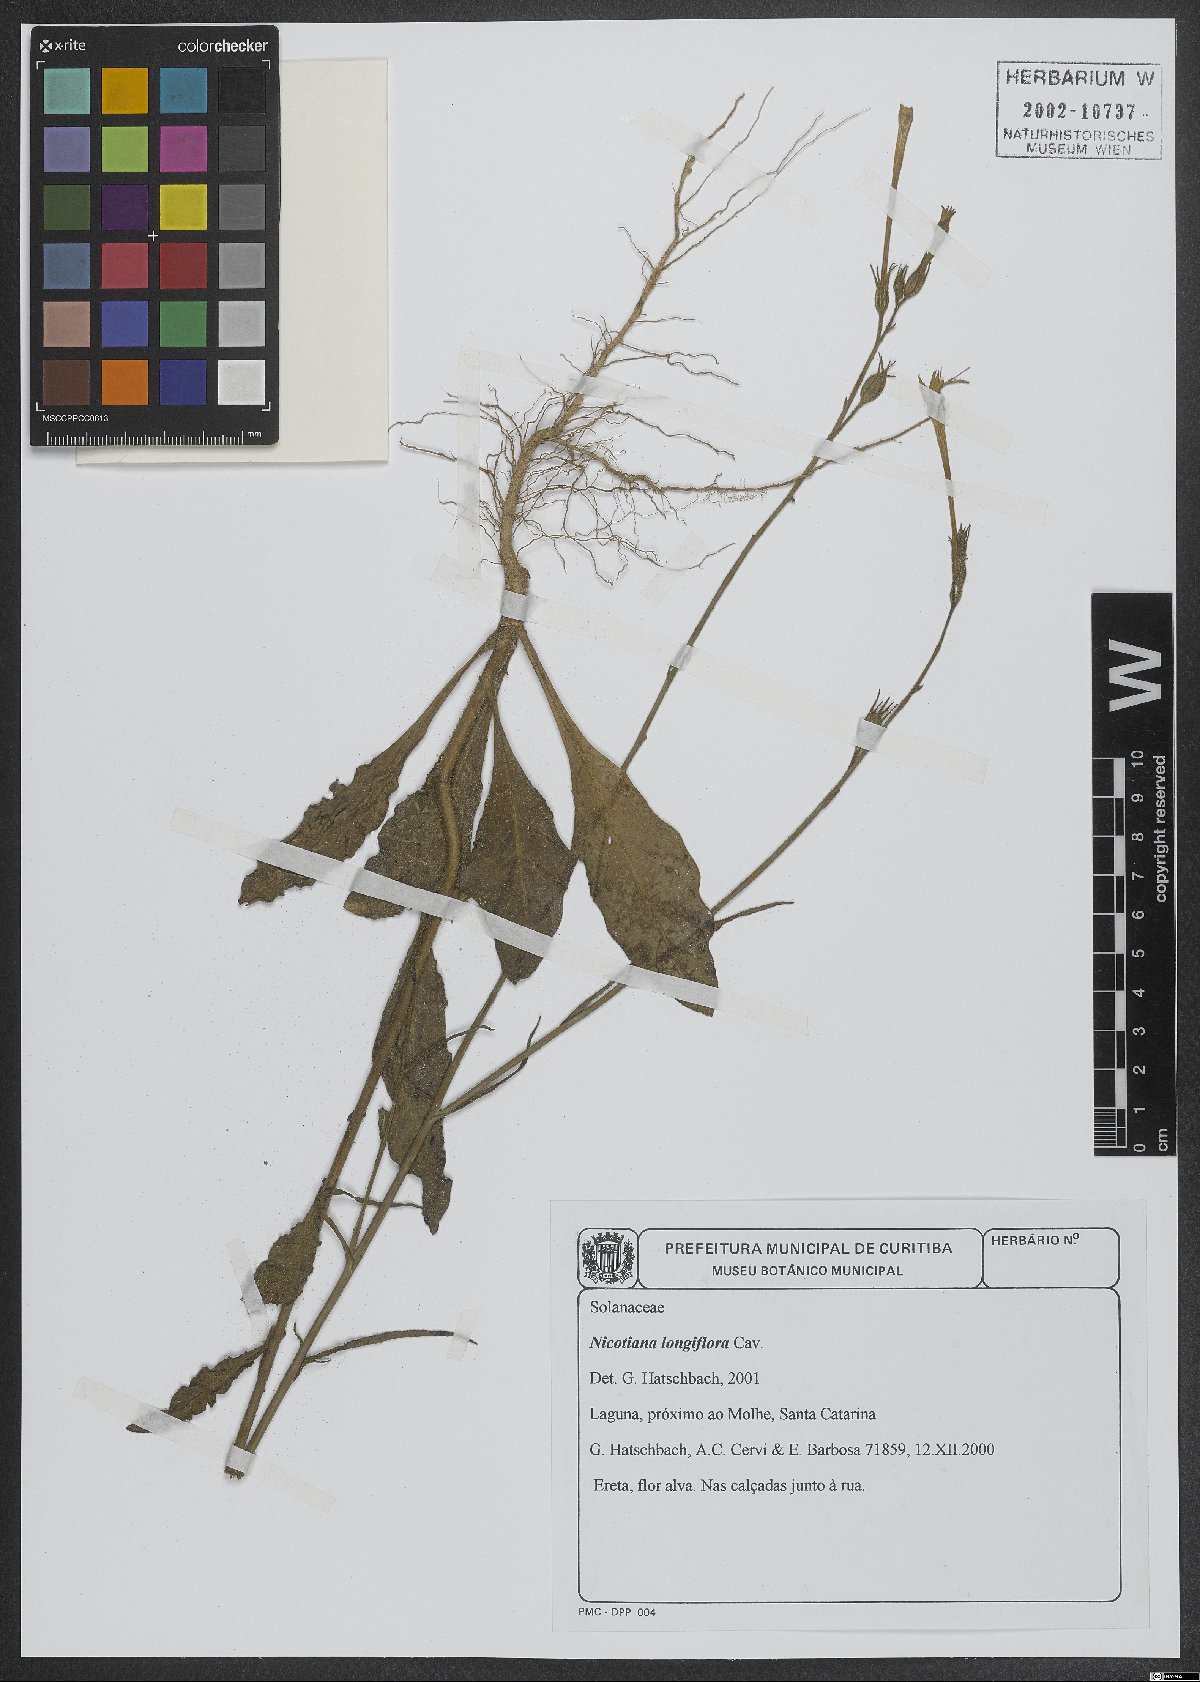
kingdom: Plantae
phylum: Tracheophyta
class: Magnoliopsida
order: Solanales
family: Solanaceae
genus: Nicotiana
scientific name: Nicotiana longiflora
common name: Long-flowered tobacco
